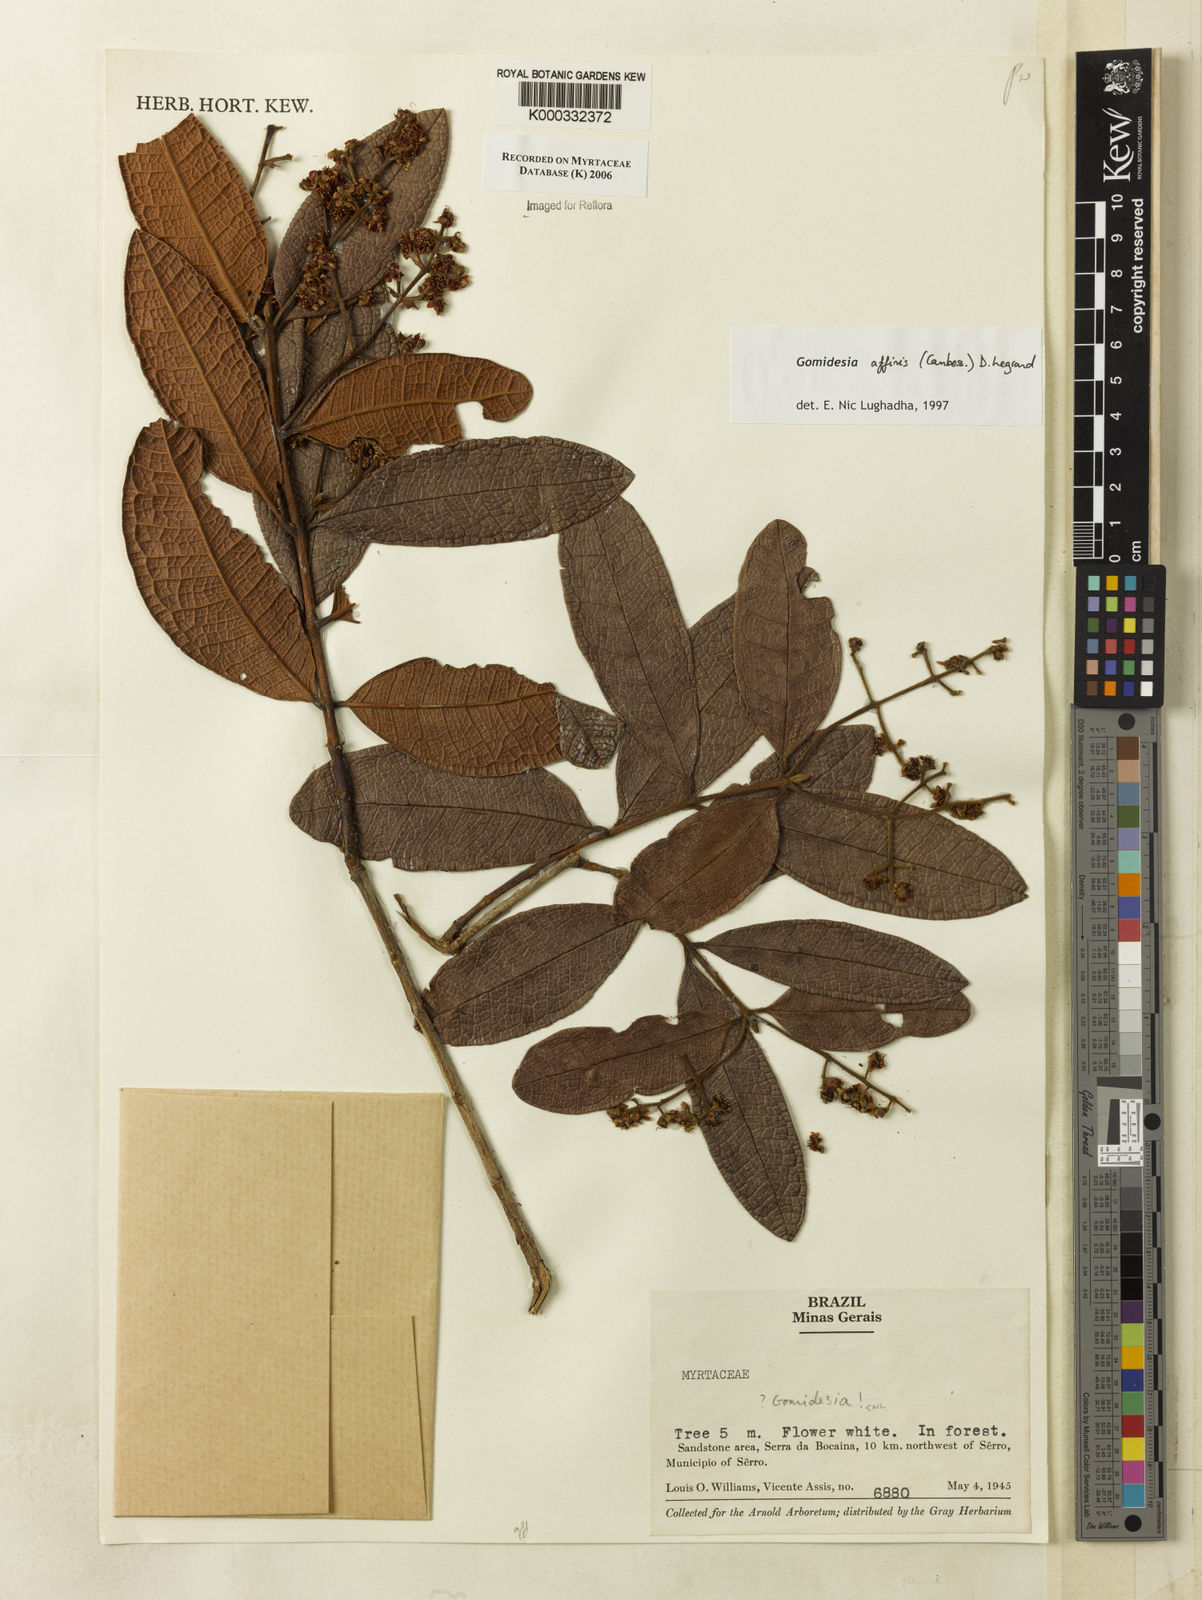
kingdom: Plantae
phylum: Tracheophyta
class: Magnoliopsida
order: Myrtales
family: Myrtaceae
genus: Myrcia
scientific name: Myrcia hebepetala
